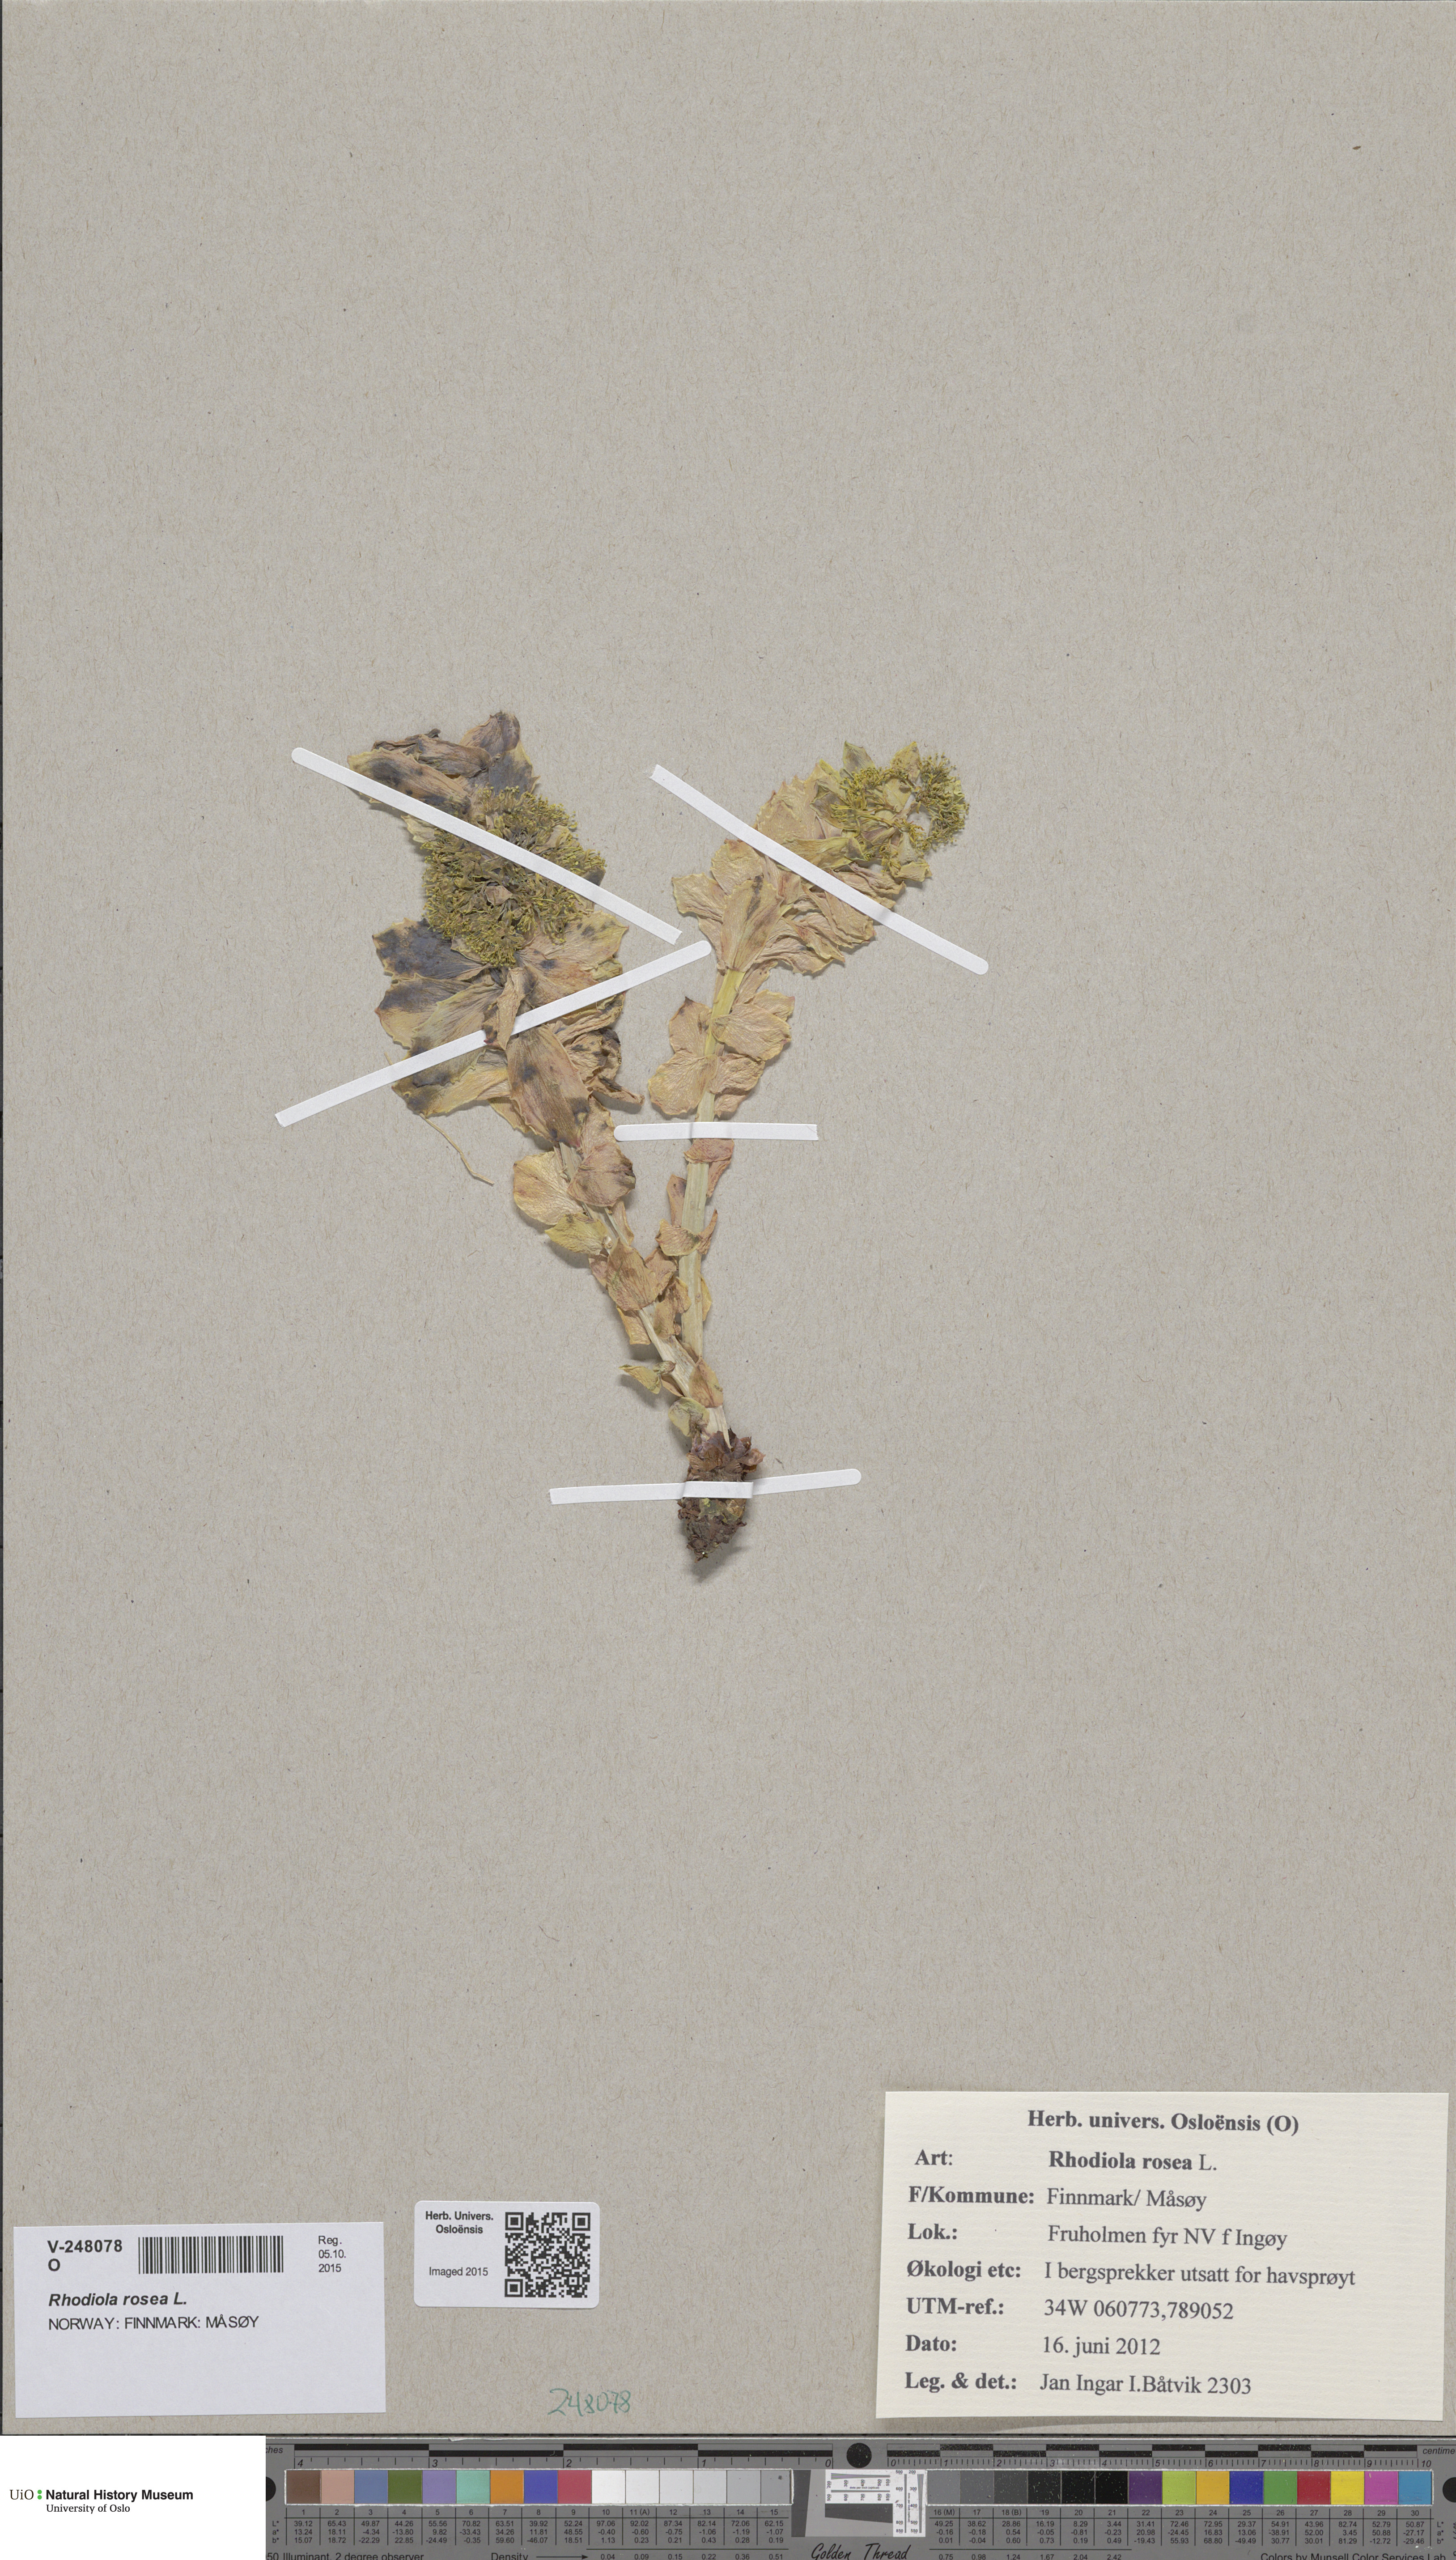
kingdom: Plantae
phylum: Tracheophyta
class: Magnoliopsida
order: Saxifragales
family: Crassulaceae
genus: Rhodiola
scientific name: Rhodiola rosea
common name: Roseroot
